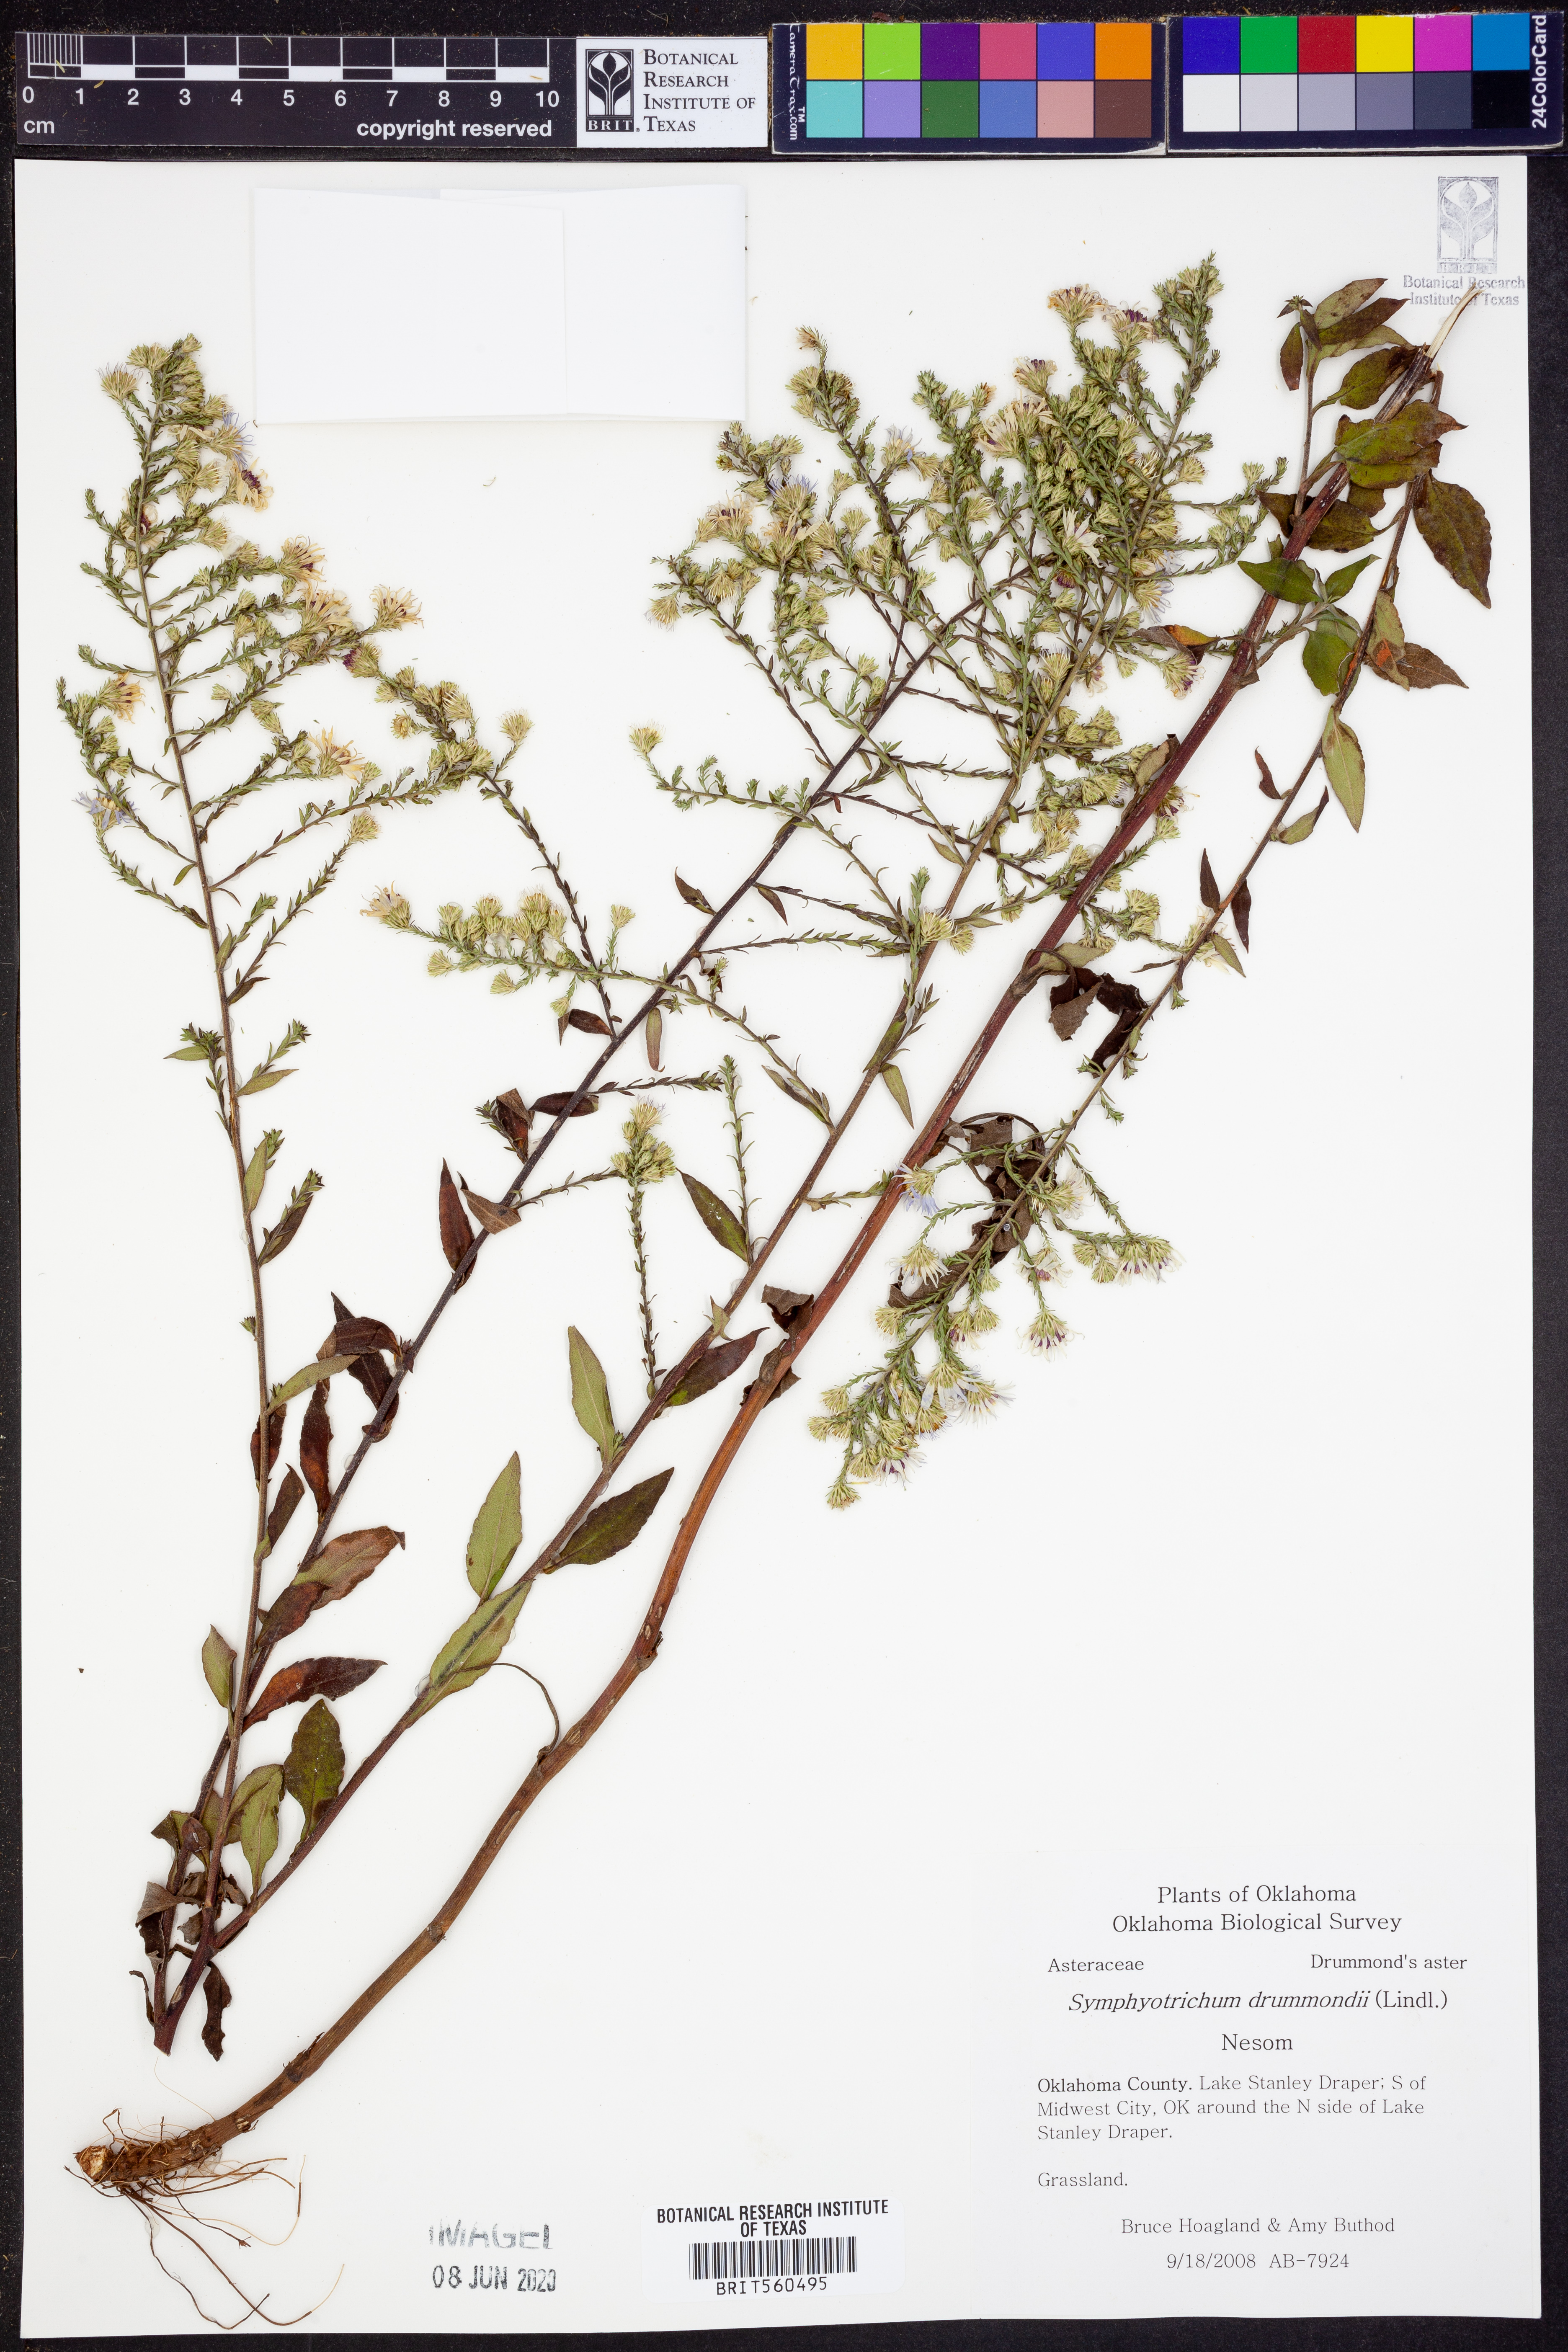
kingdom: Plantae
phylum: Tracheophyta
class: Magnoliopsida
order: Asterales
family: Asteraceae
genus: Symphyotrichum
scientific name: Symphyotrichum drummondii
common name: Drummond's aster
